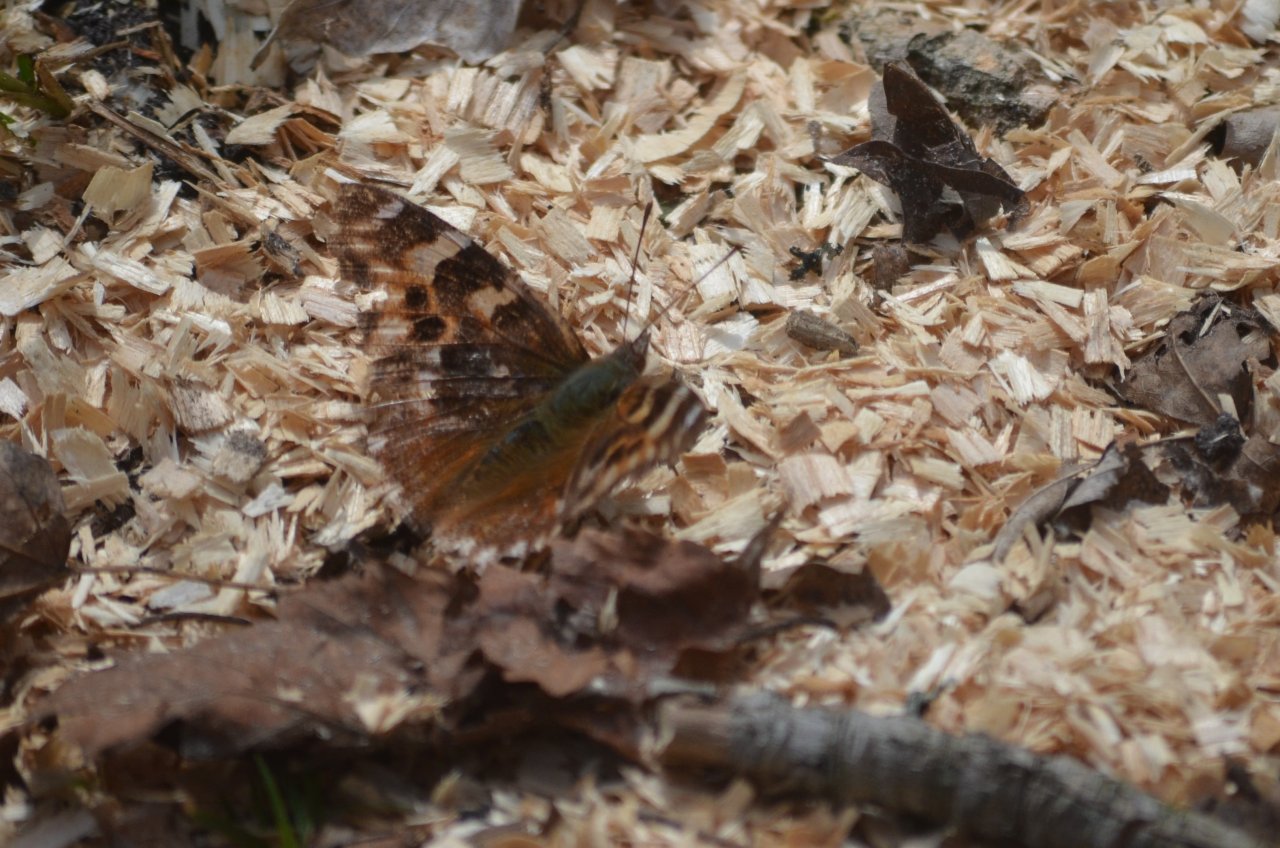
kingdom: Animalia
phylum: Arthropoda
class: Insecta
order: Lepidoptera
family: Nymphalidae
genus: Polygonia
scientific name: Polygonia vaualbum
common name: Compton Tortoiseshell
